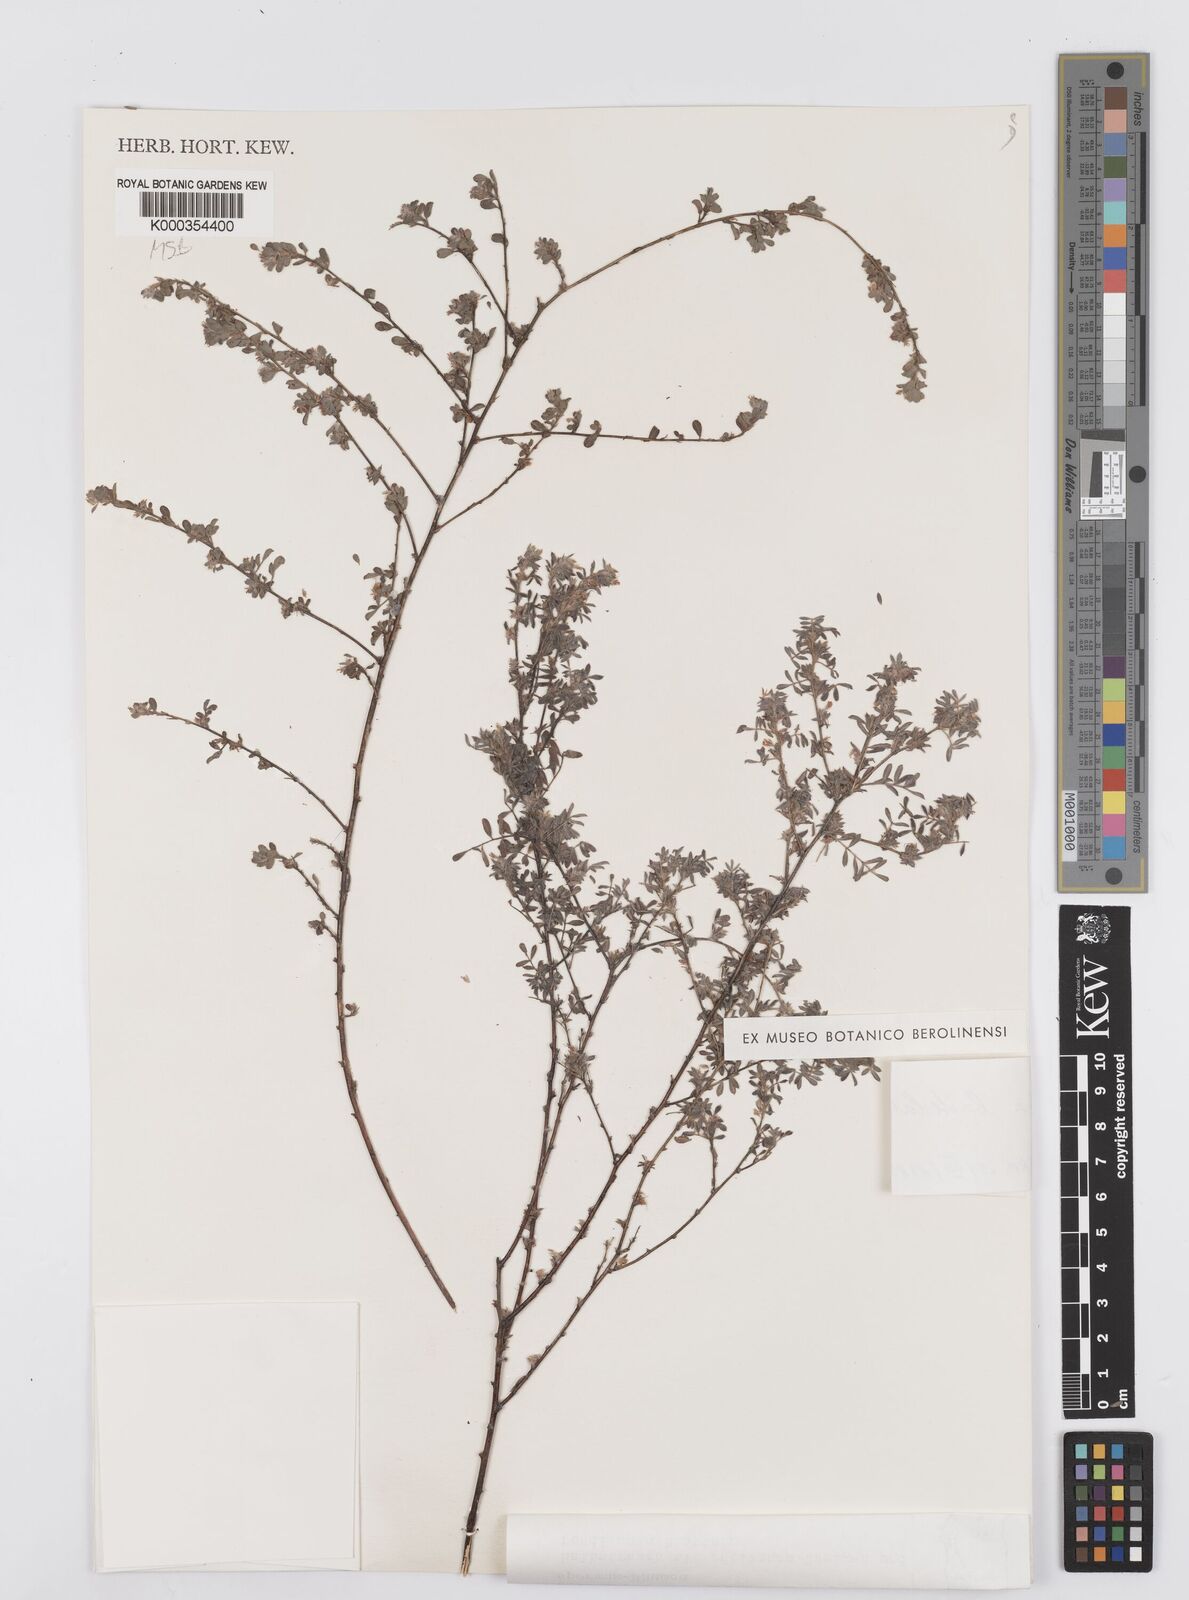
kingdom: Plantae
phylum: Tracheophyta
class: Magnoliopsida
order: Fabales
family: Fabaceae
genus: Indigofera
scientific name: Indigofera bracteolata
